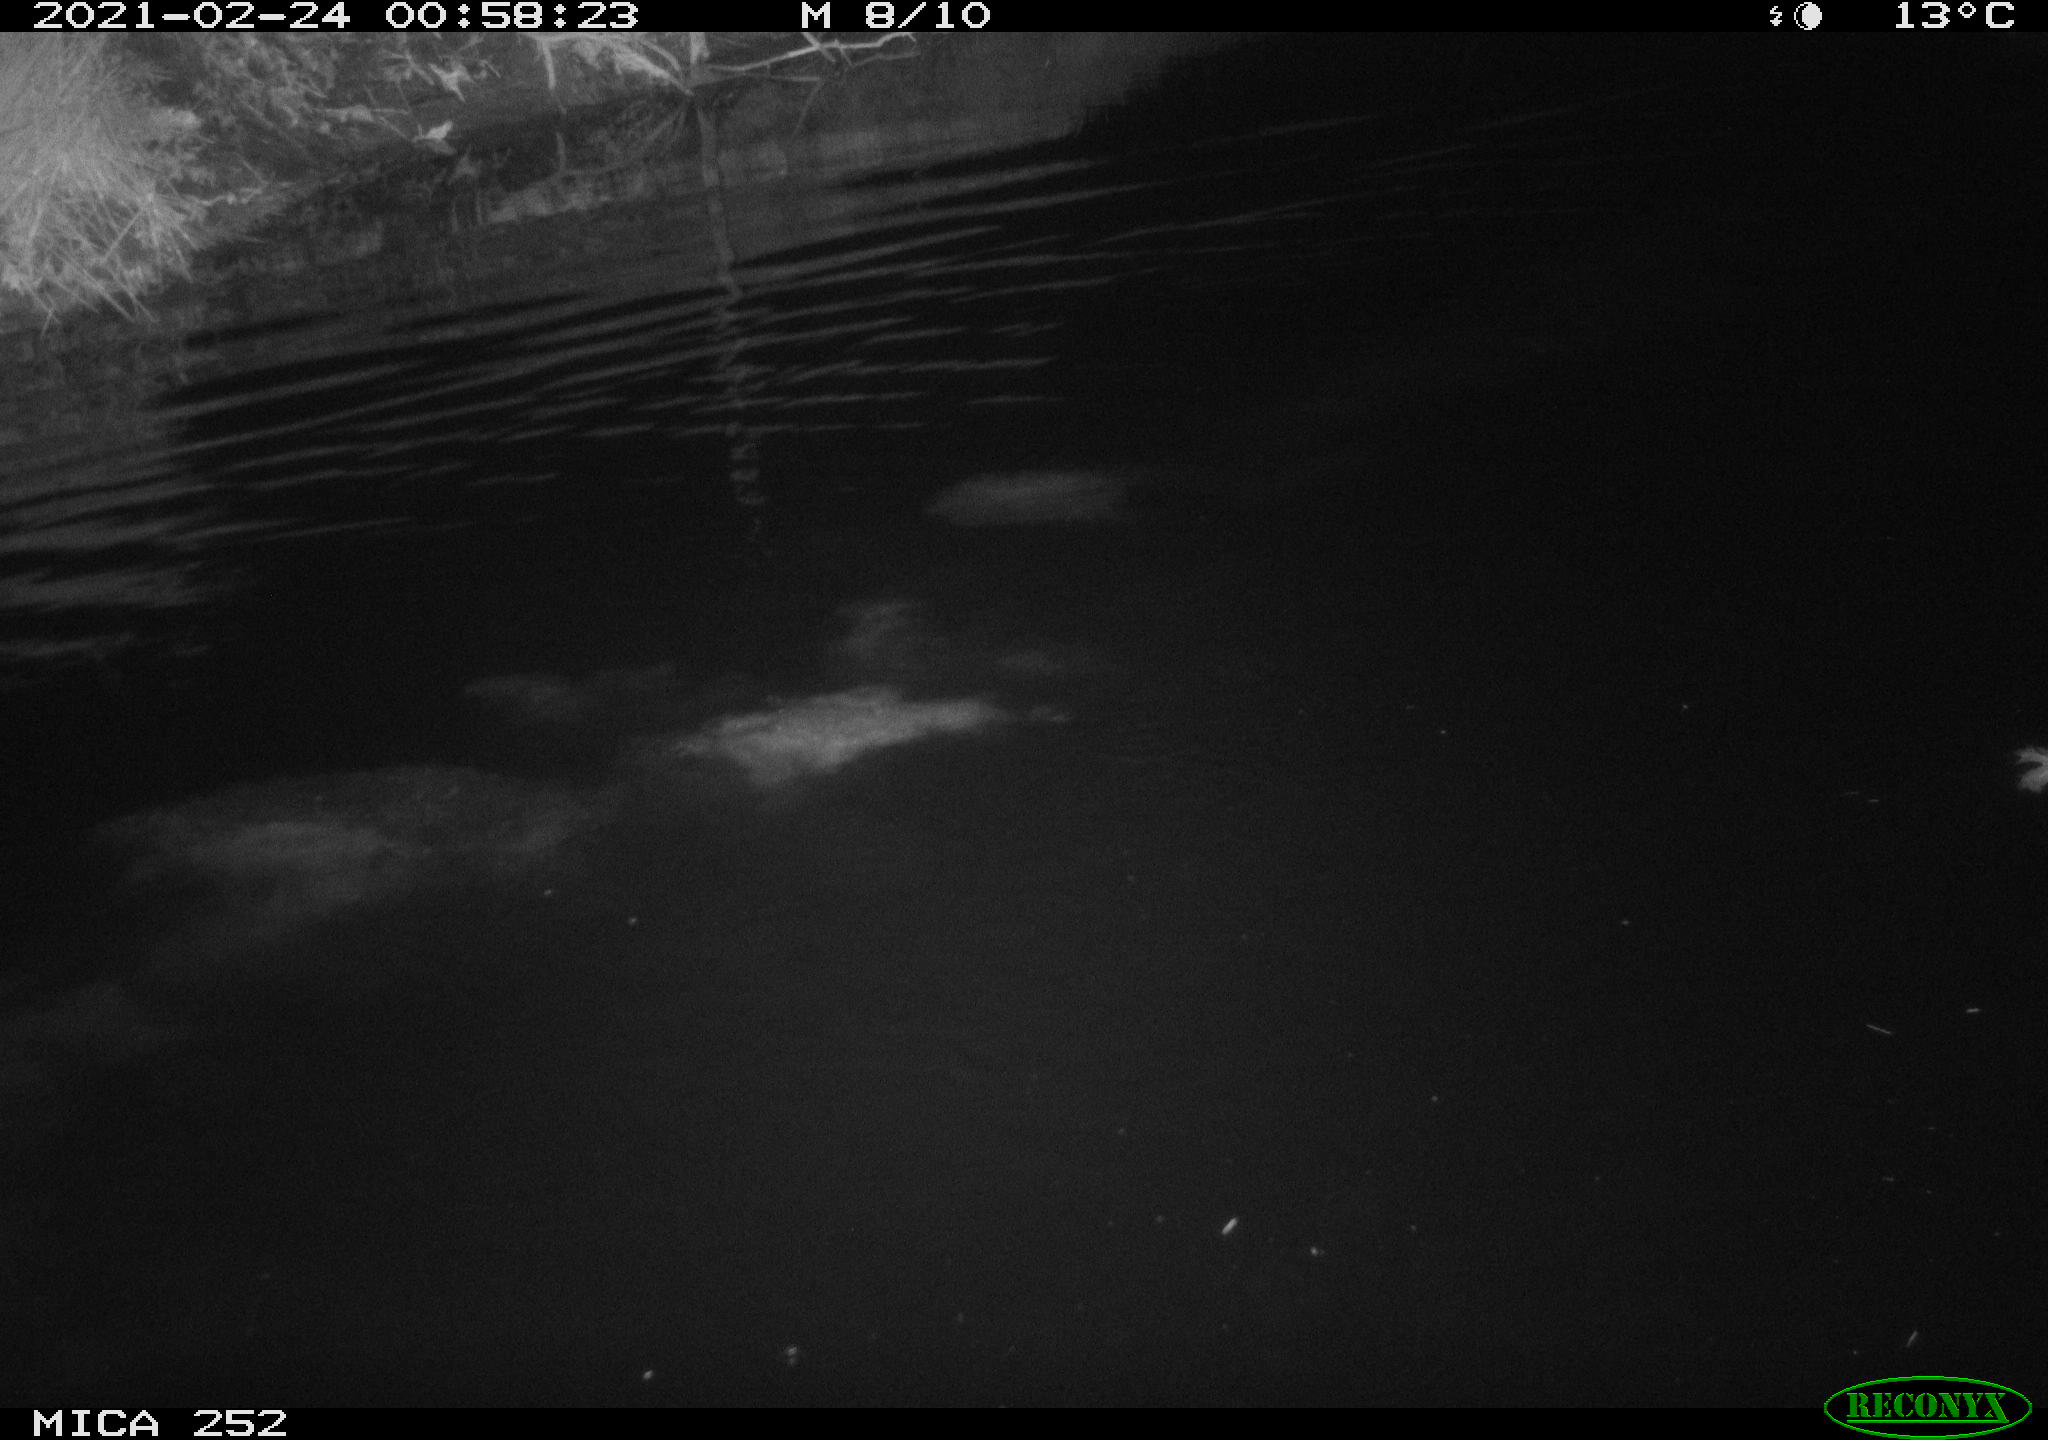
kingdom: Animalia
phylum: Chordata
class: Mammalia
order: Rodentia
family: Castoridae
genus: Castor
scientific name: Castor fiber
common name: Eurasian beaver
